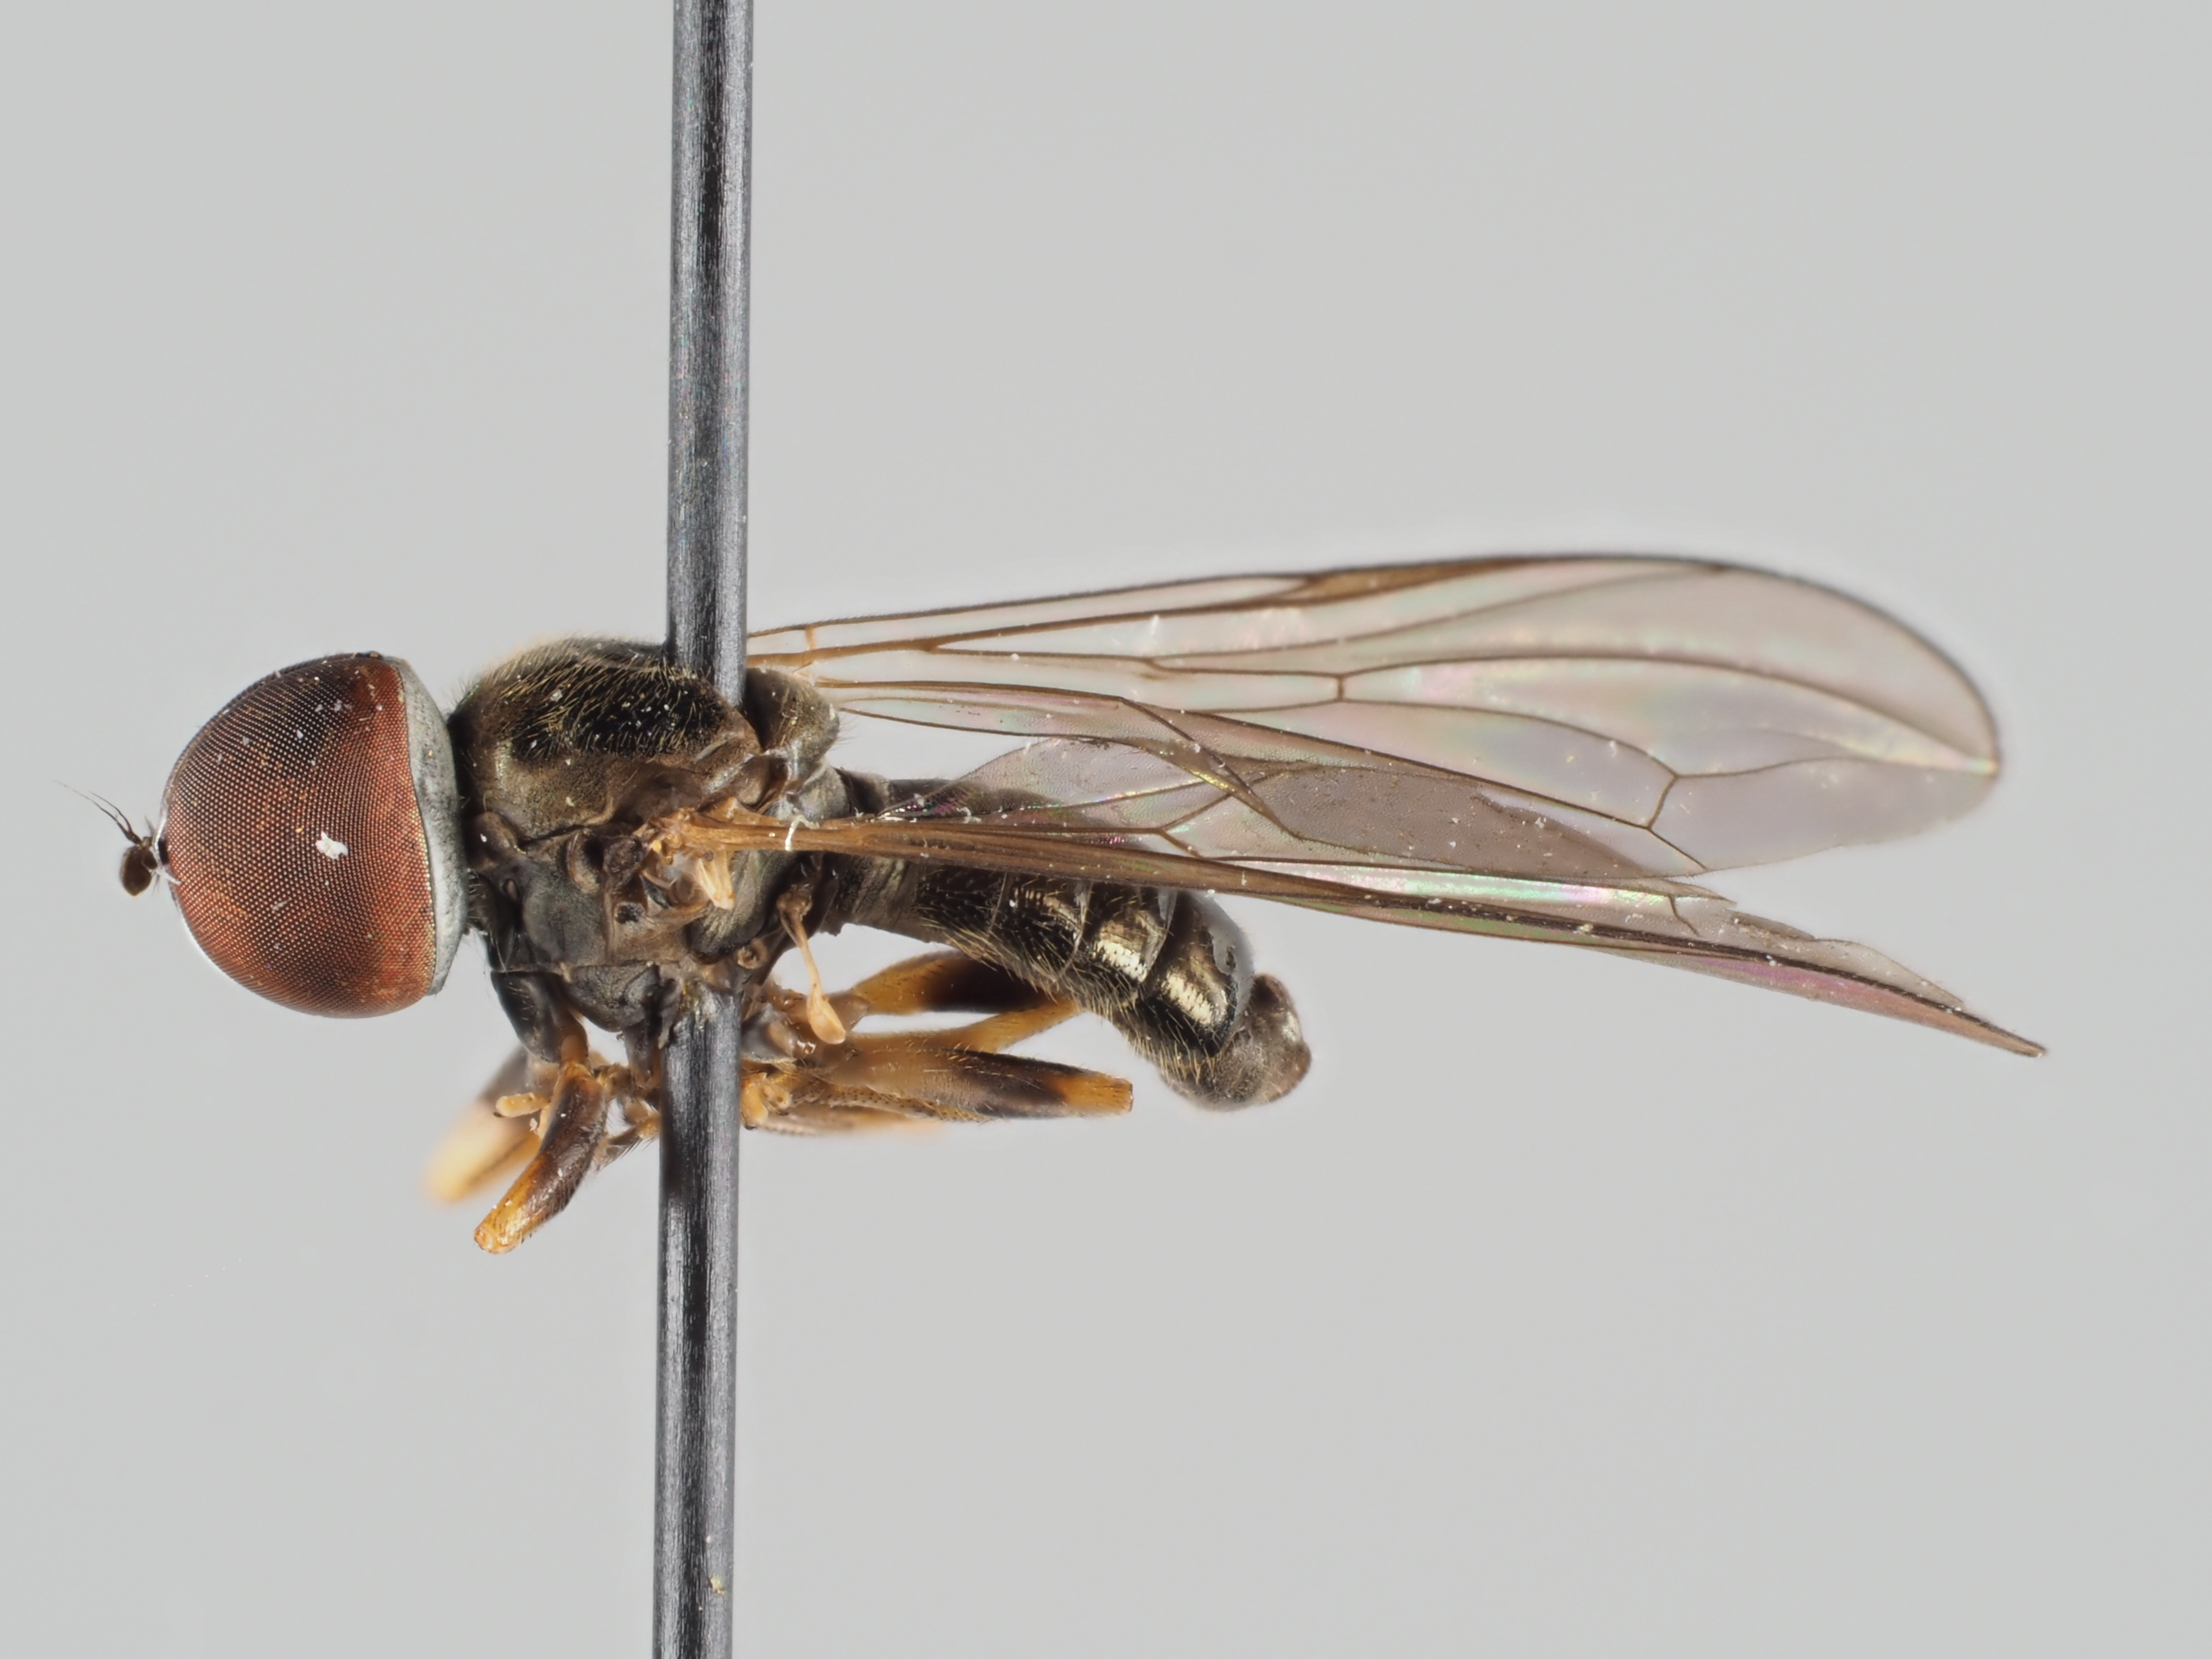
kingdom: Animalia
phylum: Arthropoda
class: Insecta
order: Diptera
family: Pipunculidae
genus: Pipunculus
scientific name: Pipunculus violovitshi
